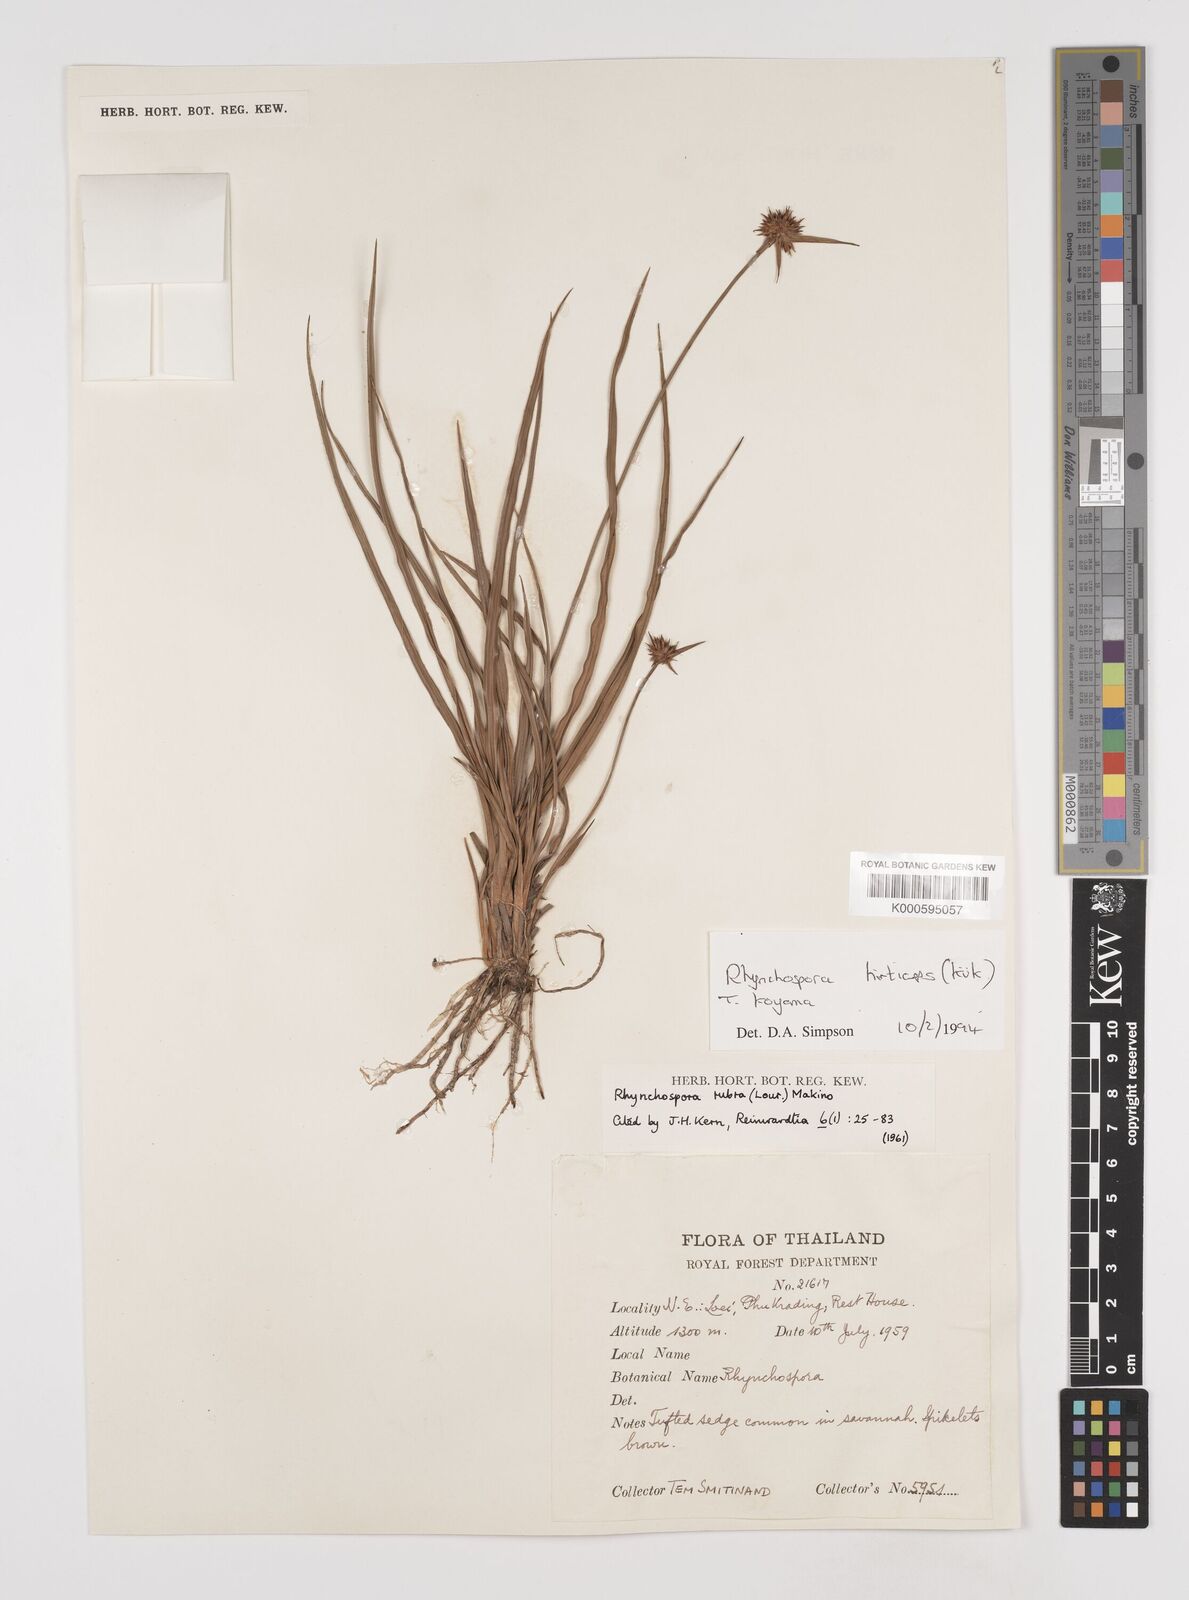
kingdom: Plantae
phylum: Tracheophyta
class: Liliopsida
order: Poales
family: Cyperaceae
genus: Rhynchospora
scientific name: Rhynchospora
